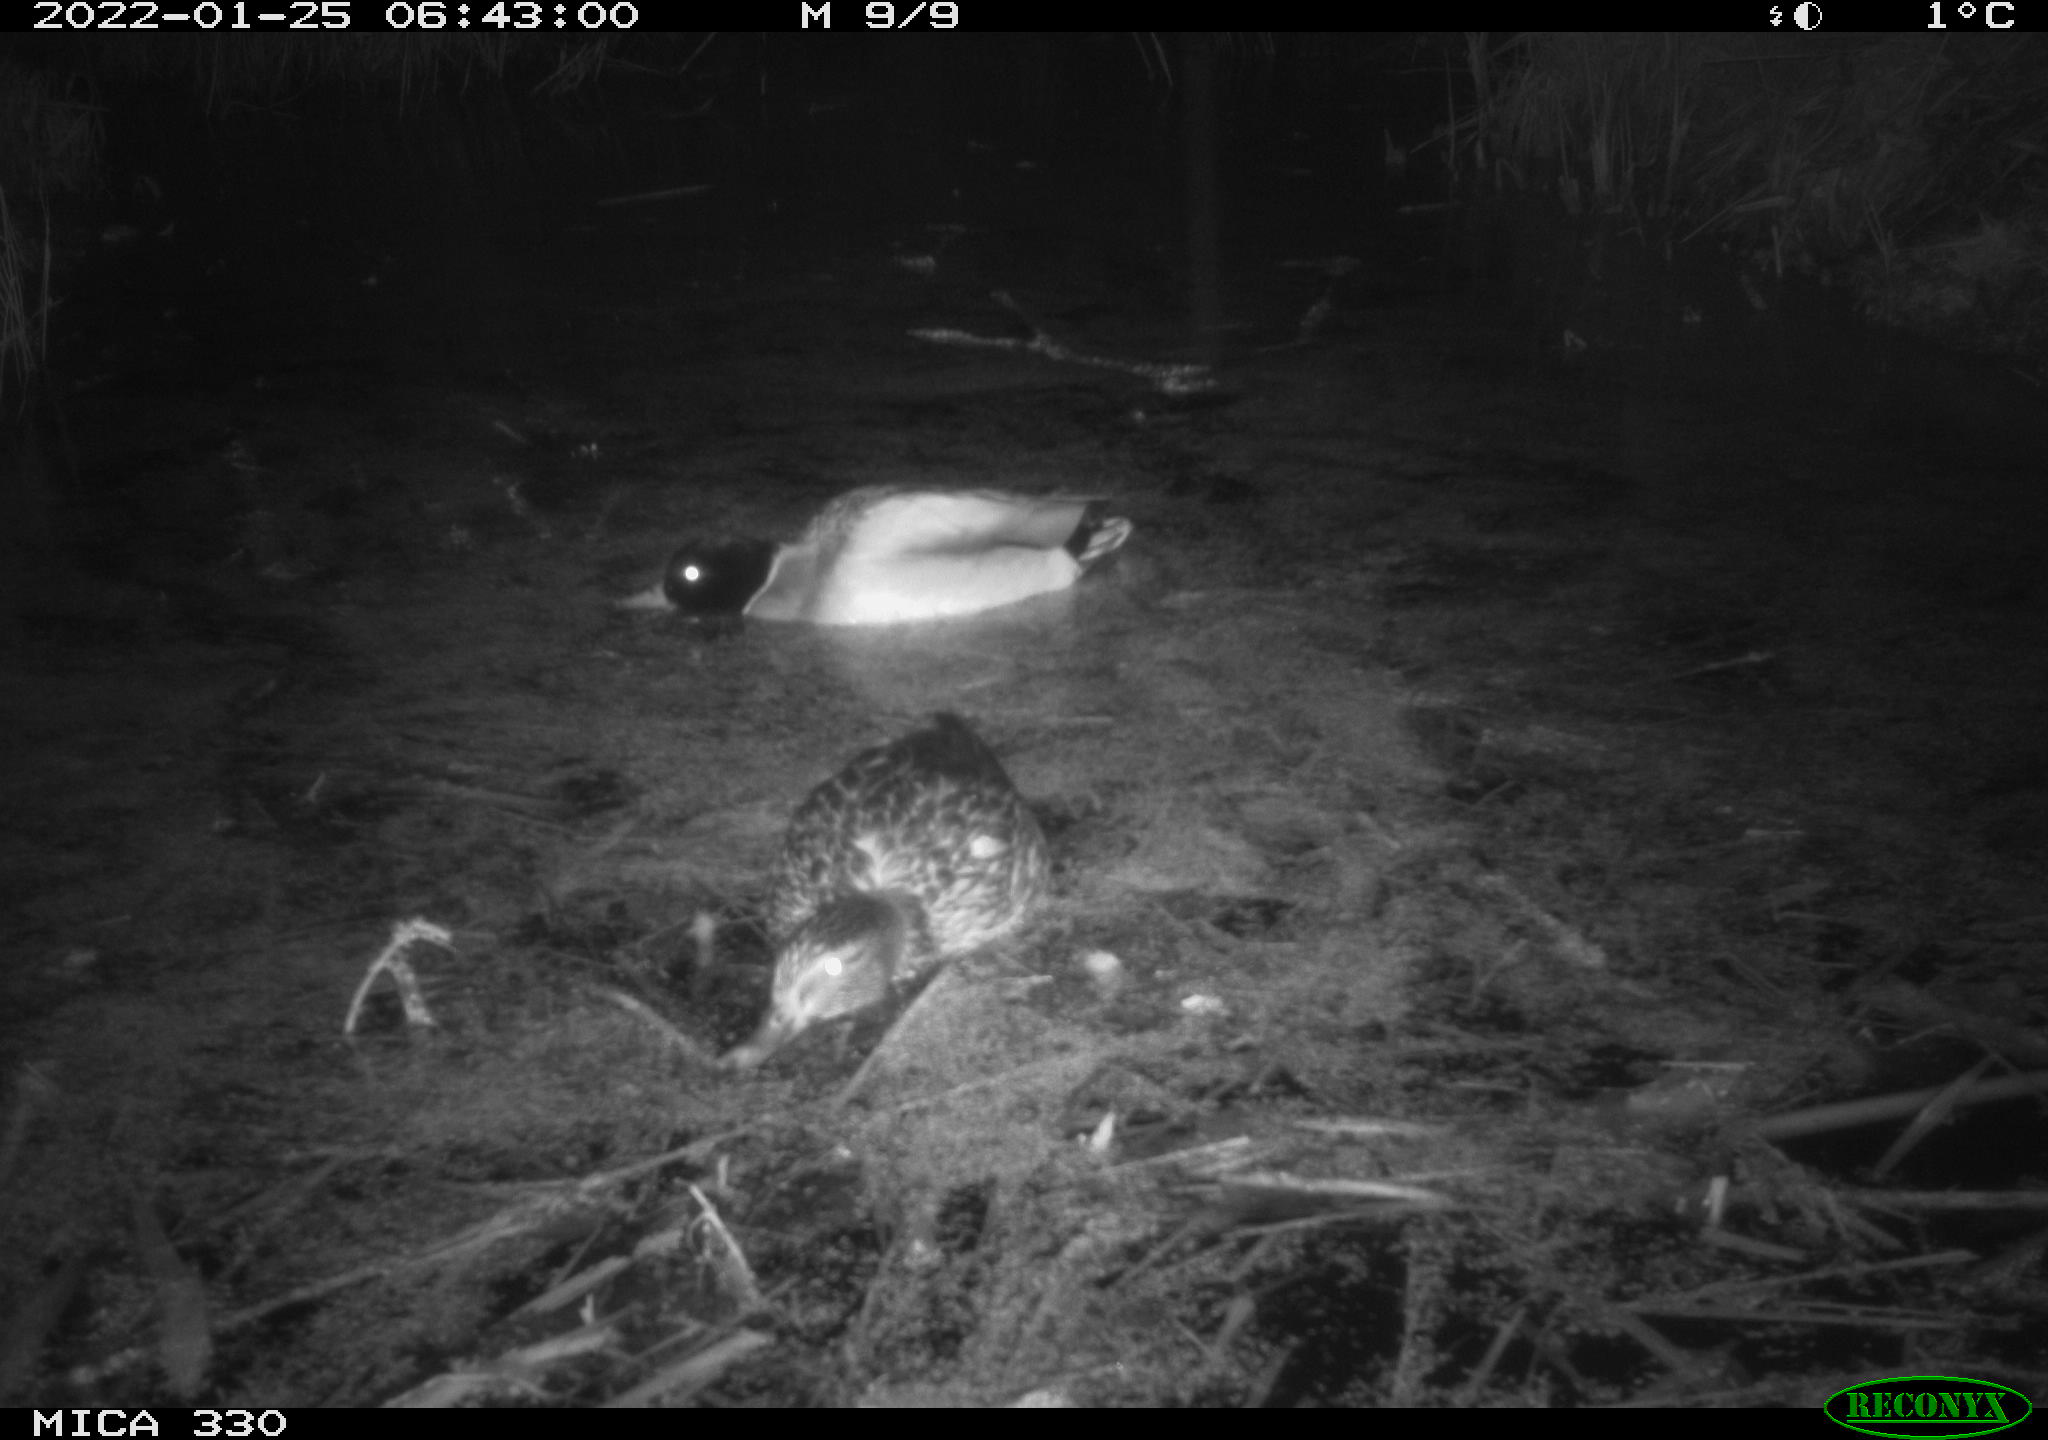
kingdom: Animalia
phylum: Chordata
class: Aves
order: Anseriformes
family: Anatidae
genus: Anas
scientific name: Anas platyrhynchos
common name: Mallard
